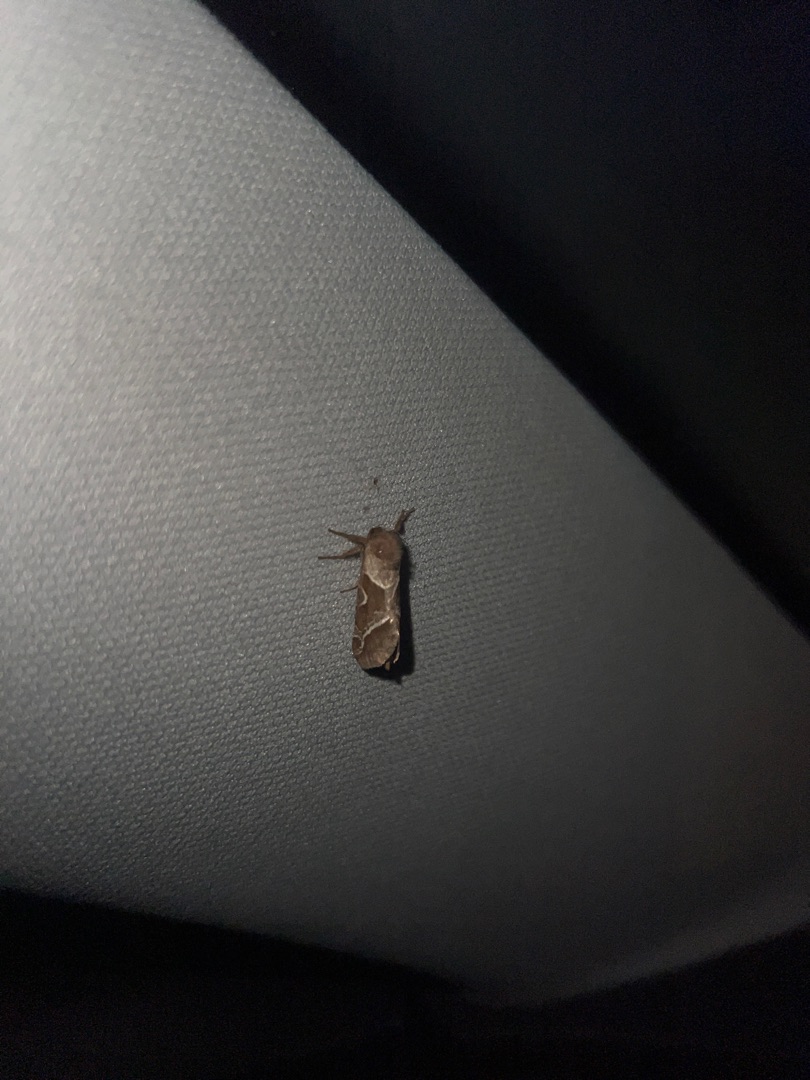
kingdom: Animalia
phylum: Arthropoda
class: Insecta
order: Lepidoptera
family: Hepialidae
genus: Triodia
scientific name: Triodia sylvina
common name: Skræpperodæder
